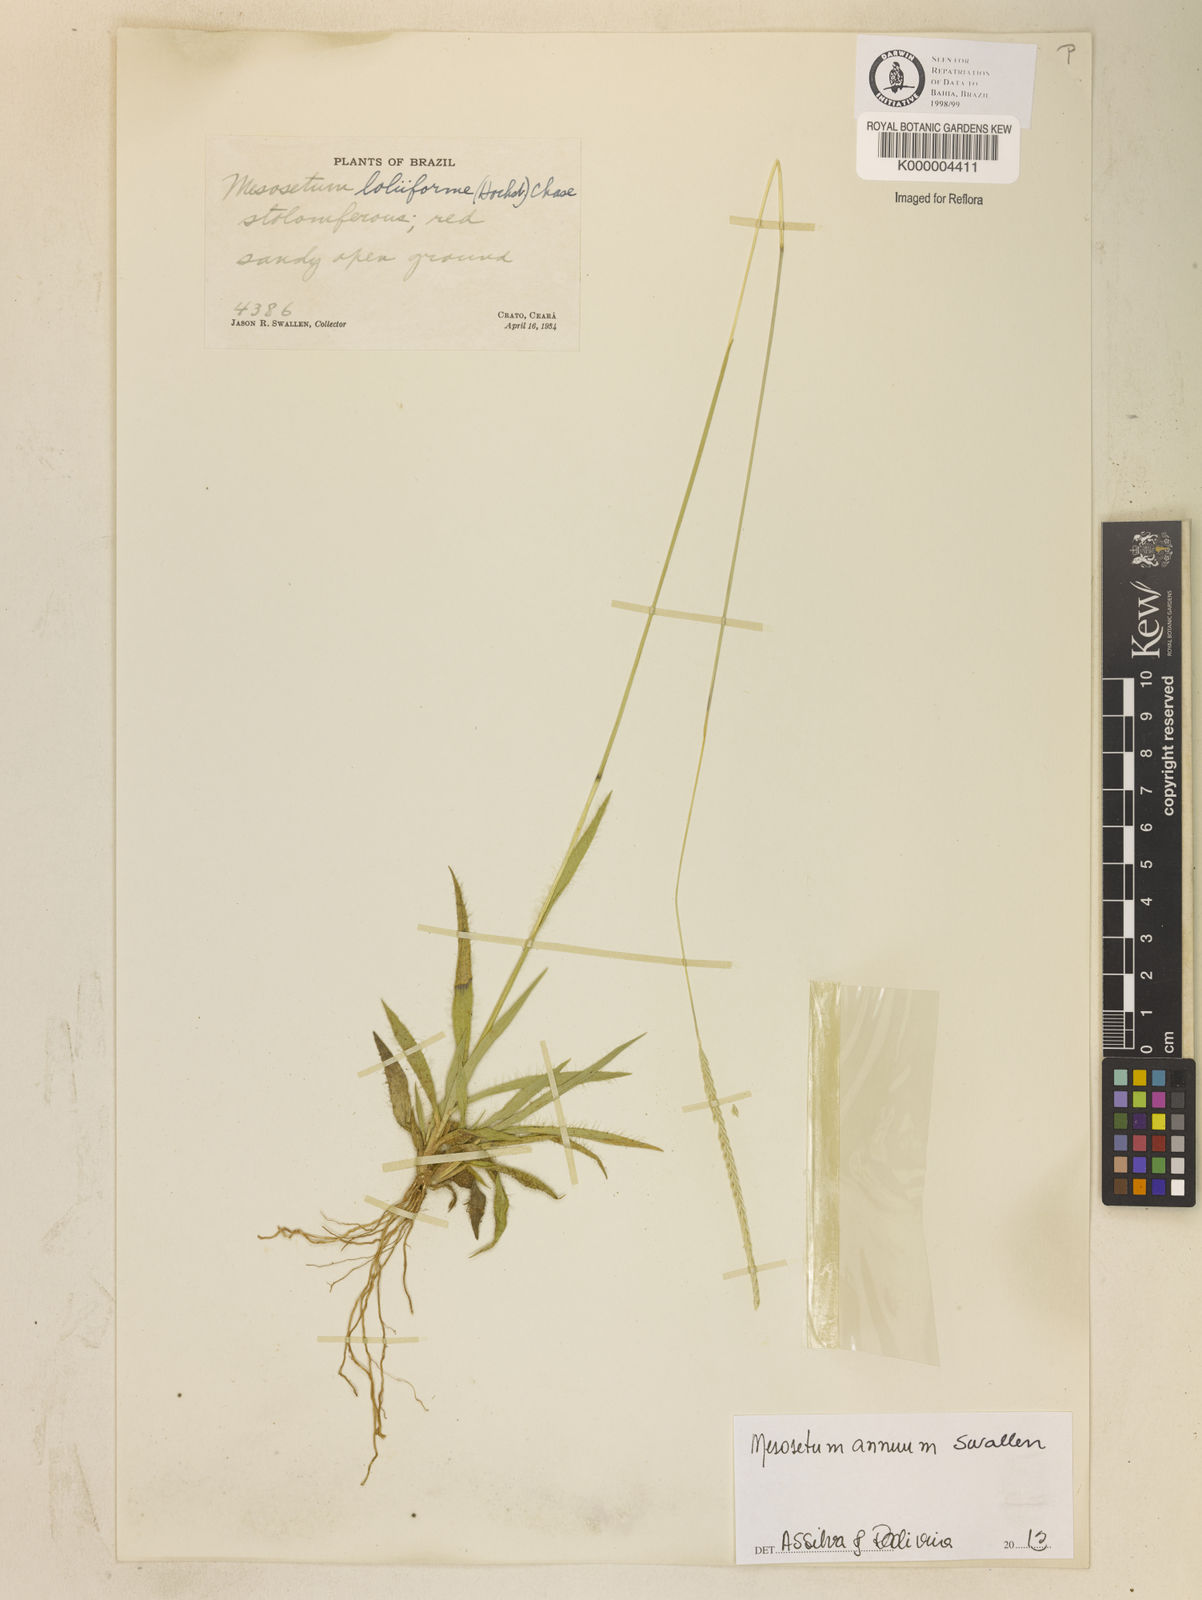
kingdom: Plantae
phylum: Tracheophyta
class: Liliopsida
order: Poales
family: Poaceae
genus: Mesosetum
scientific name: Mesosetum annuum
